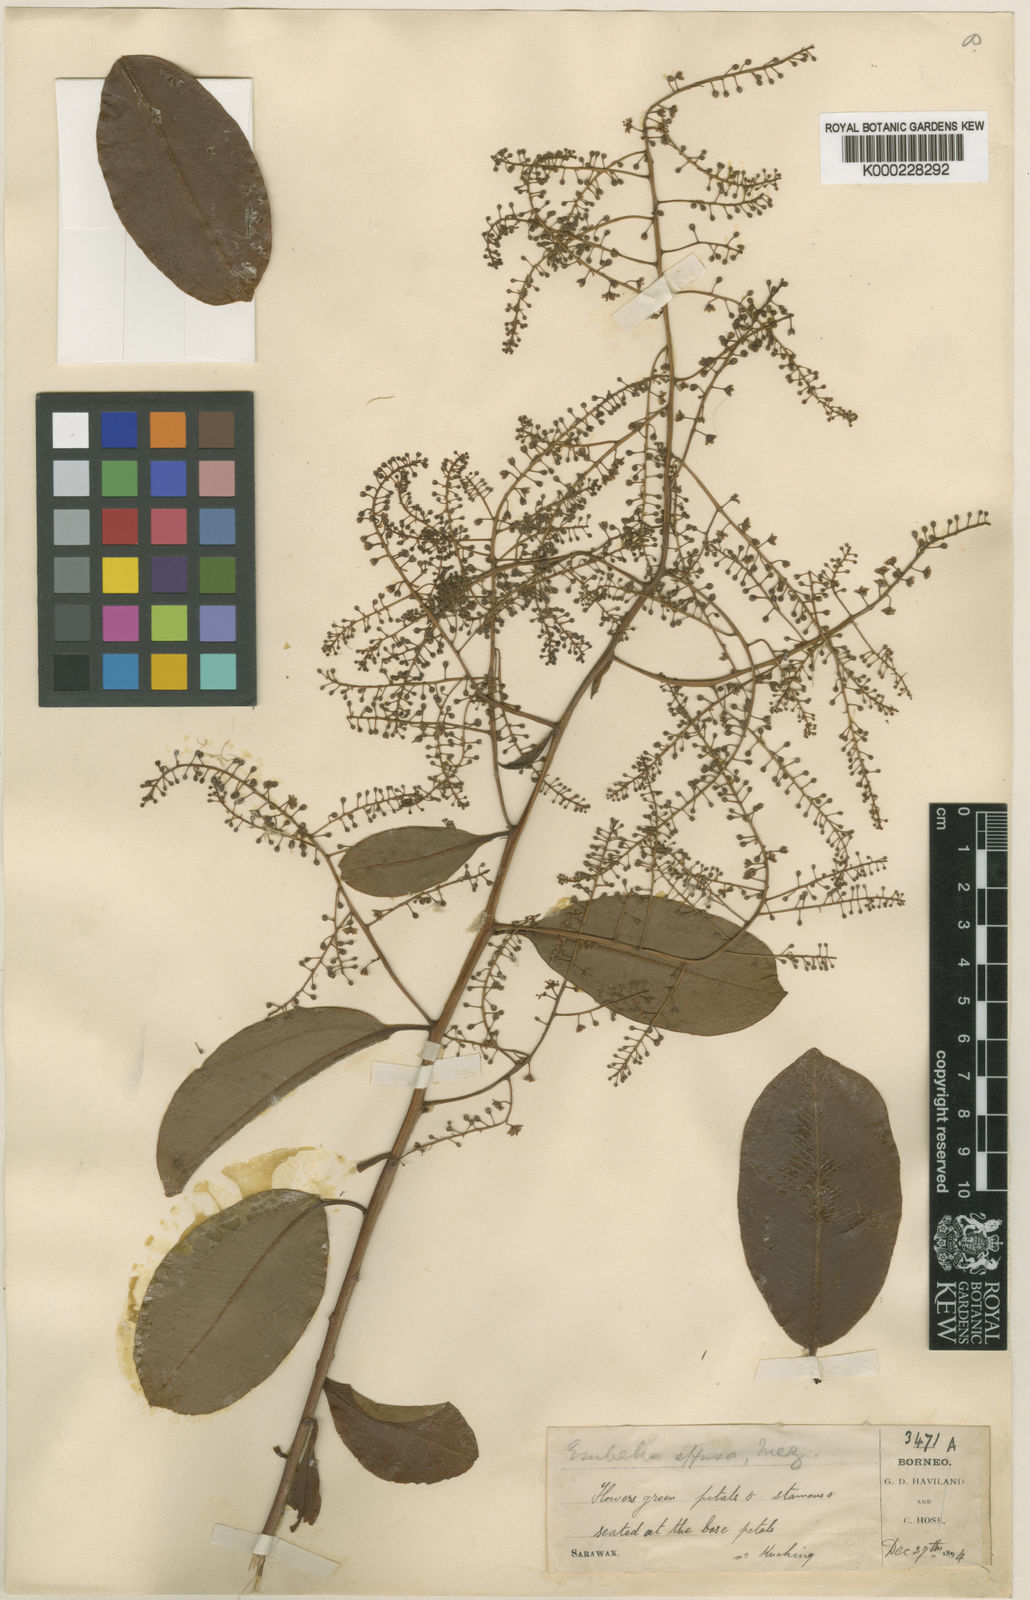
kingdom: Plantae
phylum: Tracheophyta
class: Magnoliopsida
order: Ericales
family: Primulaceae
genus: Embelia
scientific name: Embelia effusa
